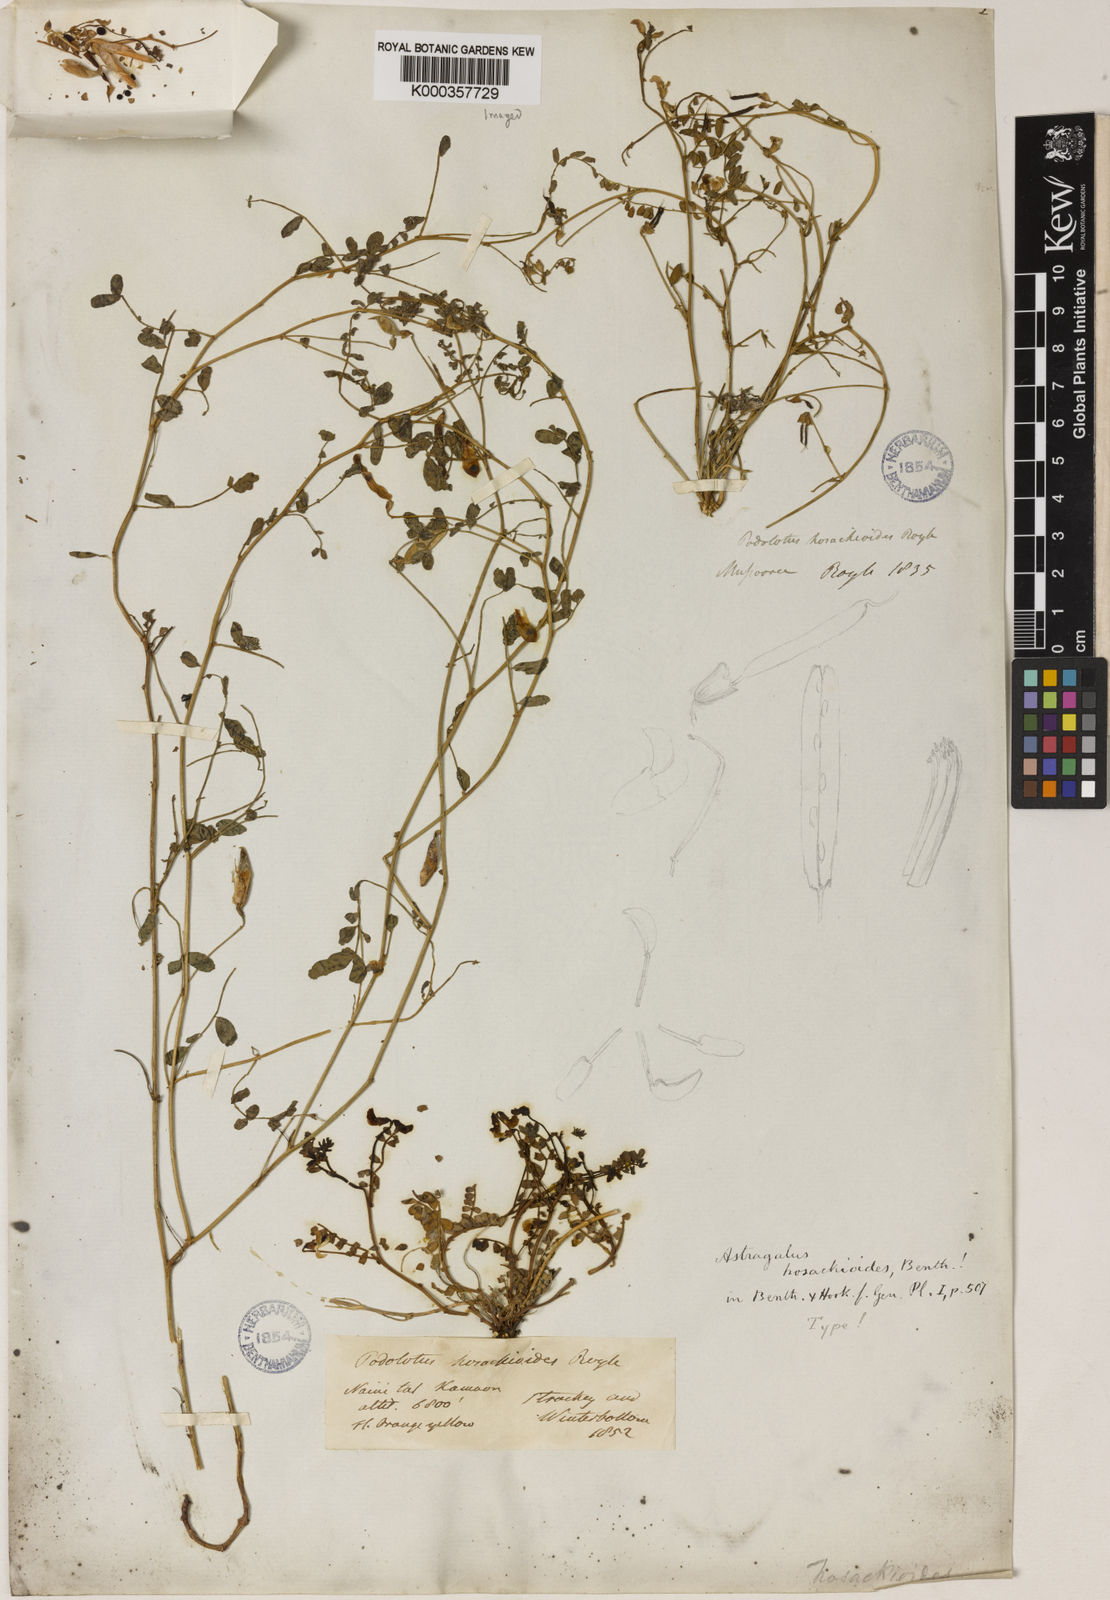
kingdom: Plantae
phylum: Tracheophyta
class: Magnoliopsida
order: Fabales
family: Fabaceae
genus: Podolotus
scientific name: Podolotus hosackioides
